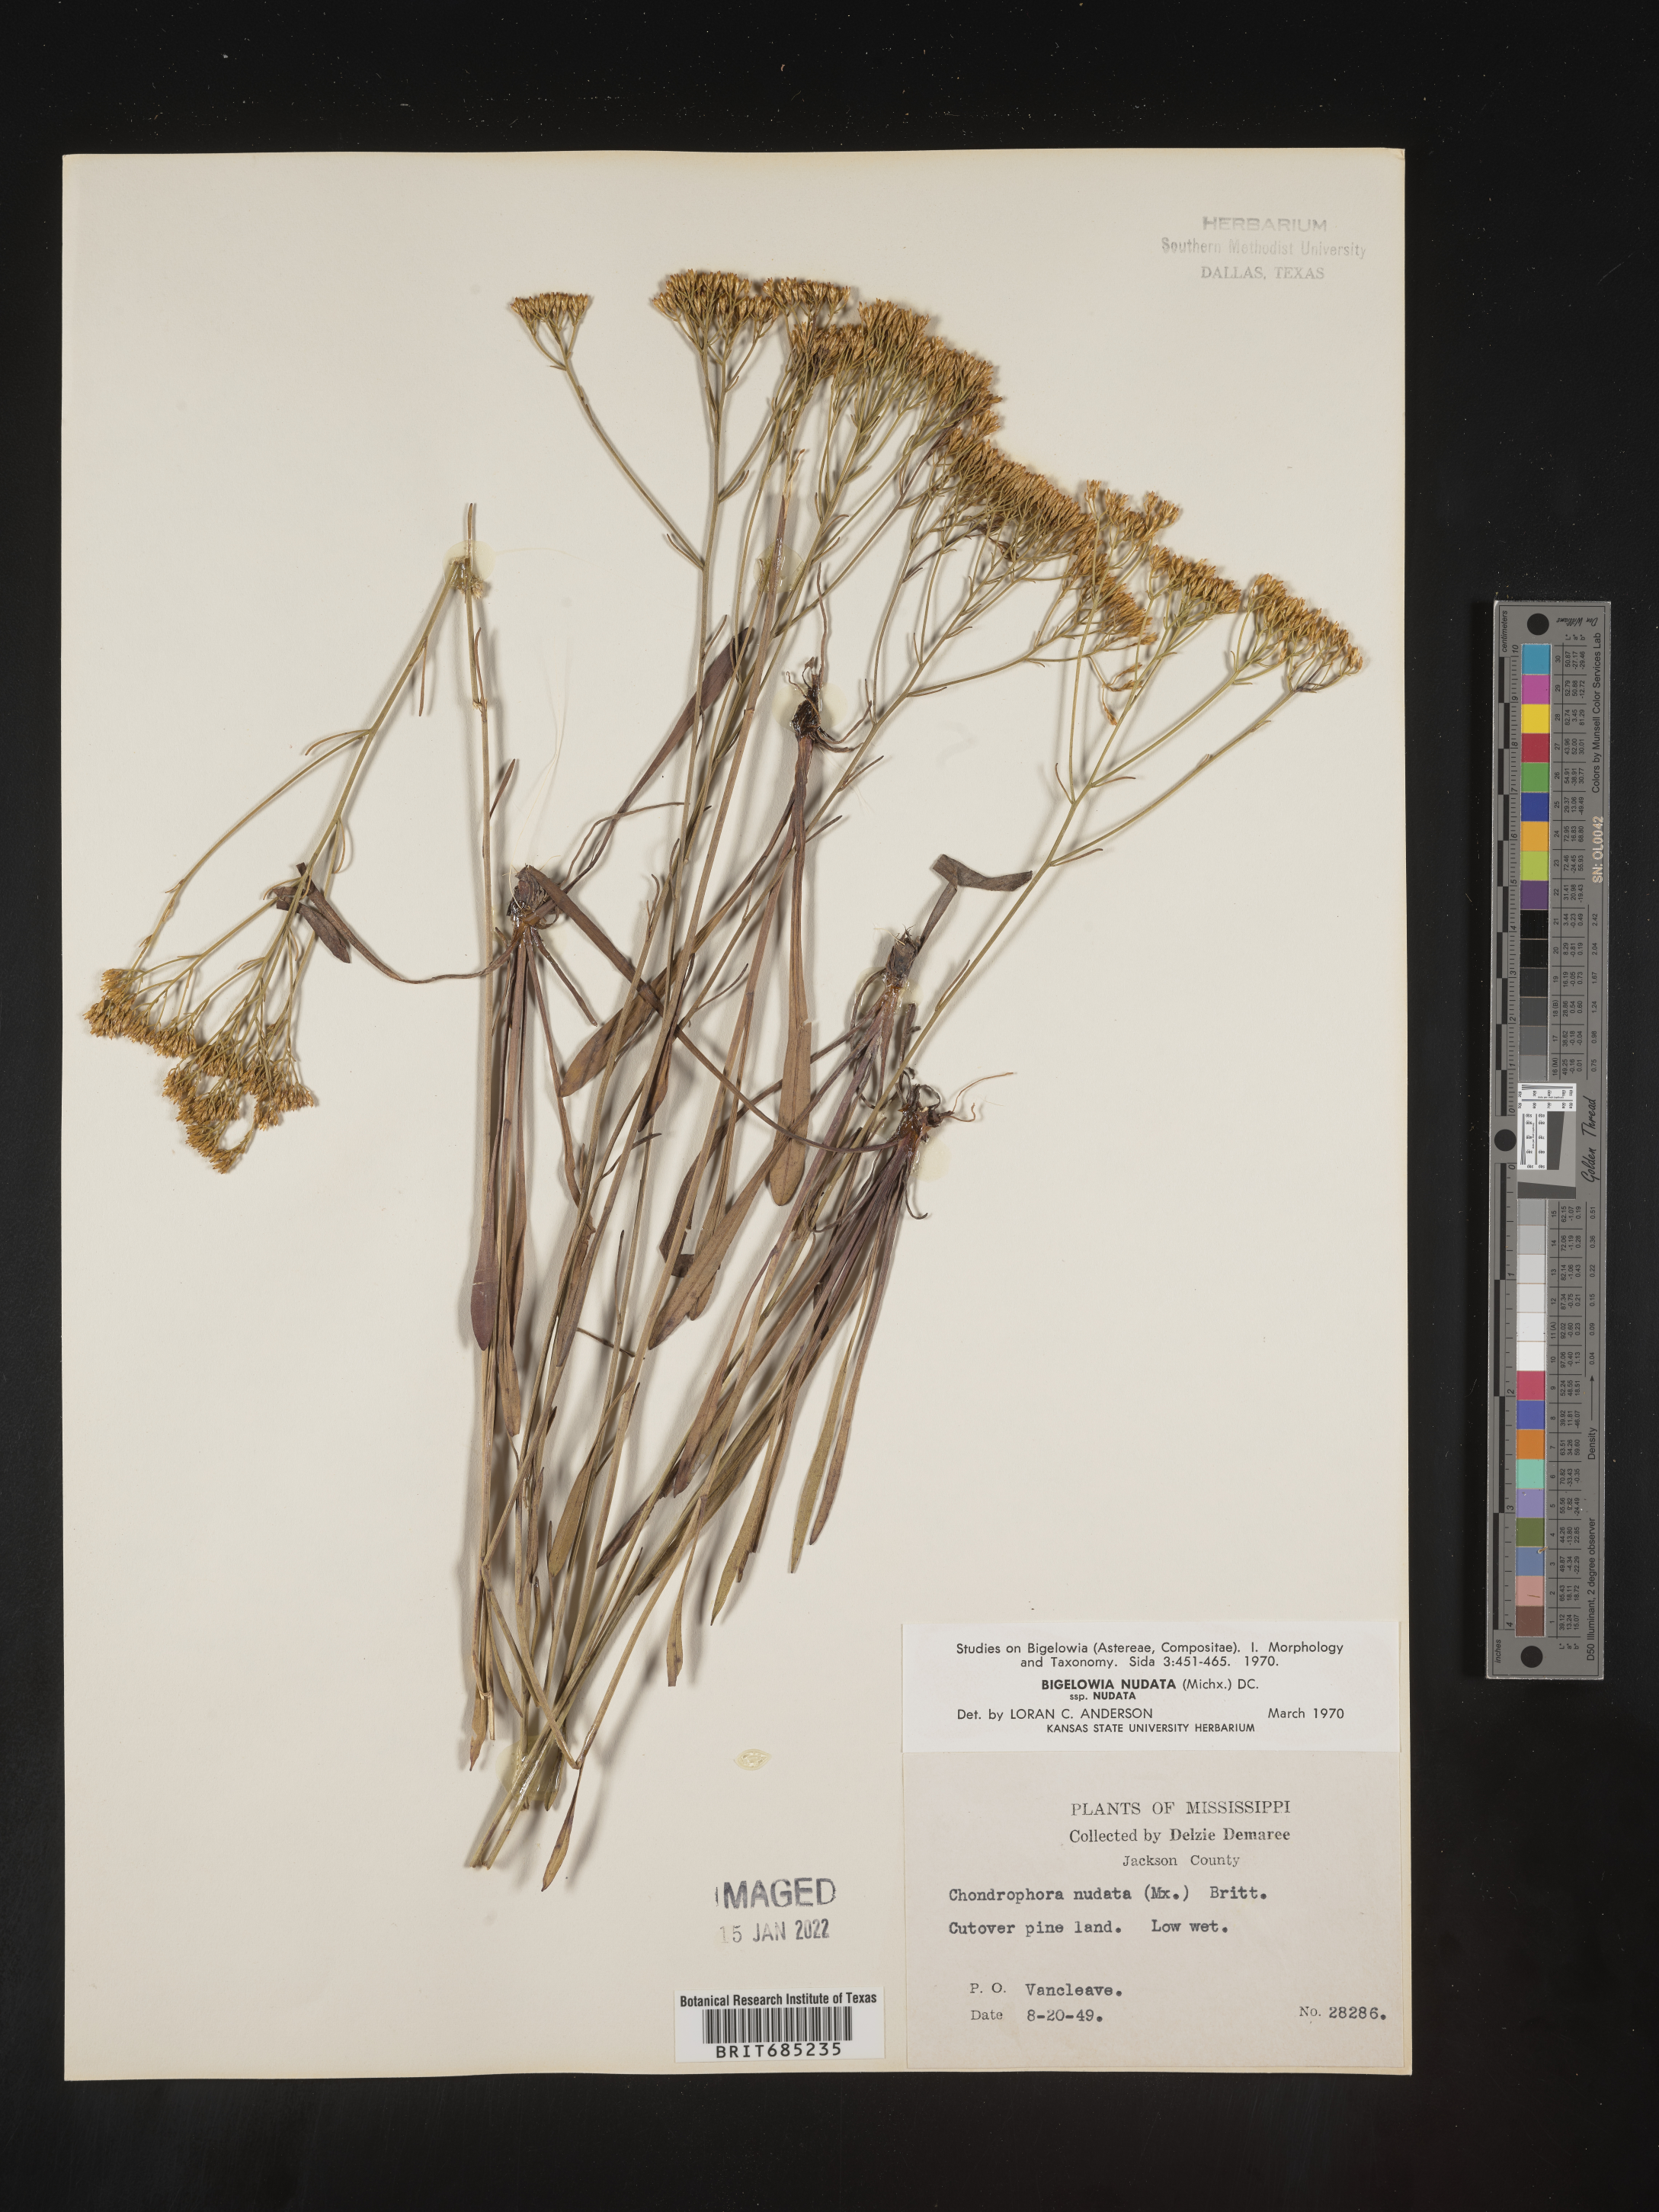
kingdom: Plantae
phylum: Tracheophyta
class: Magnoliopsida
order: Asterales
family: Asteraceae
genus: Bigelowia
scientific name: Bigelowia nudata
